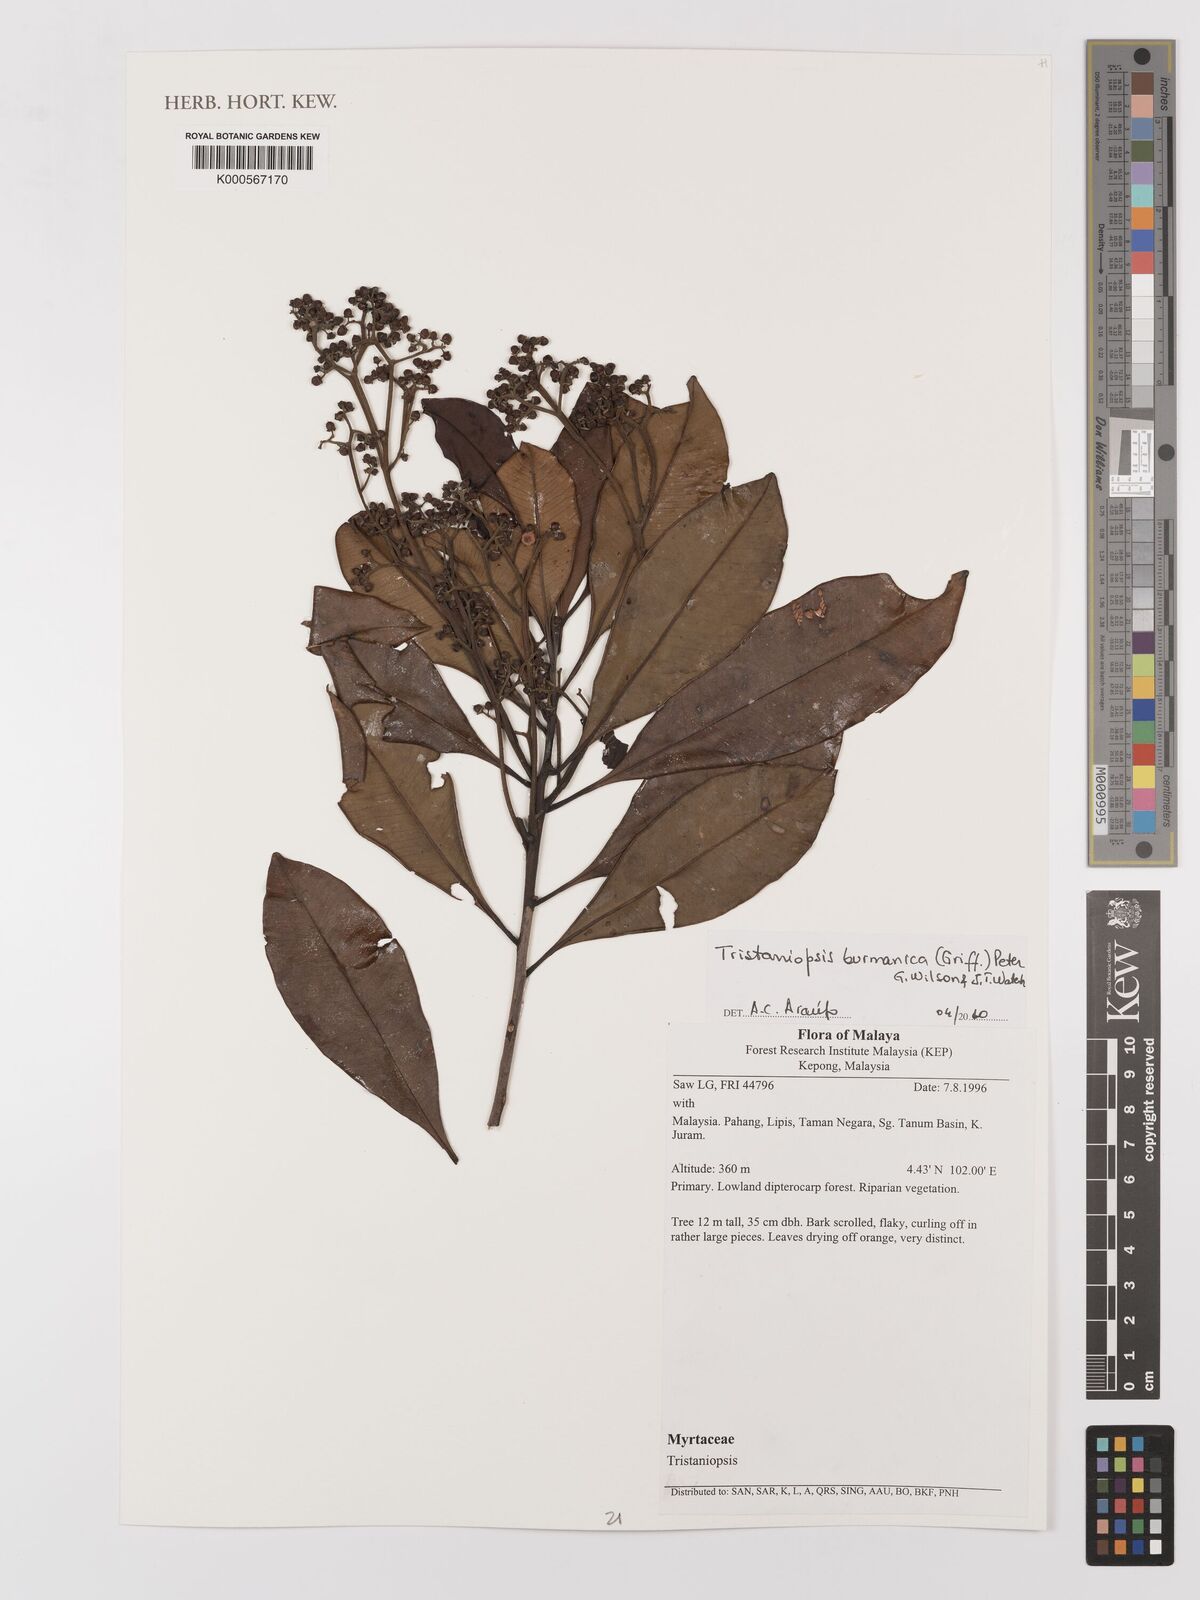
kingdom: Plantae
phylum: Tracheophyta
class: Magnoliopsida
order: Myrtales
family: Myrtaceae
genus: Tristaniopsis
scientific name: Tristaniopsis burmanica
